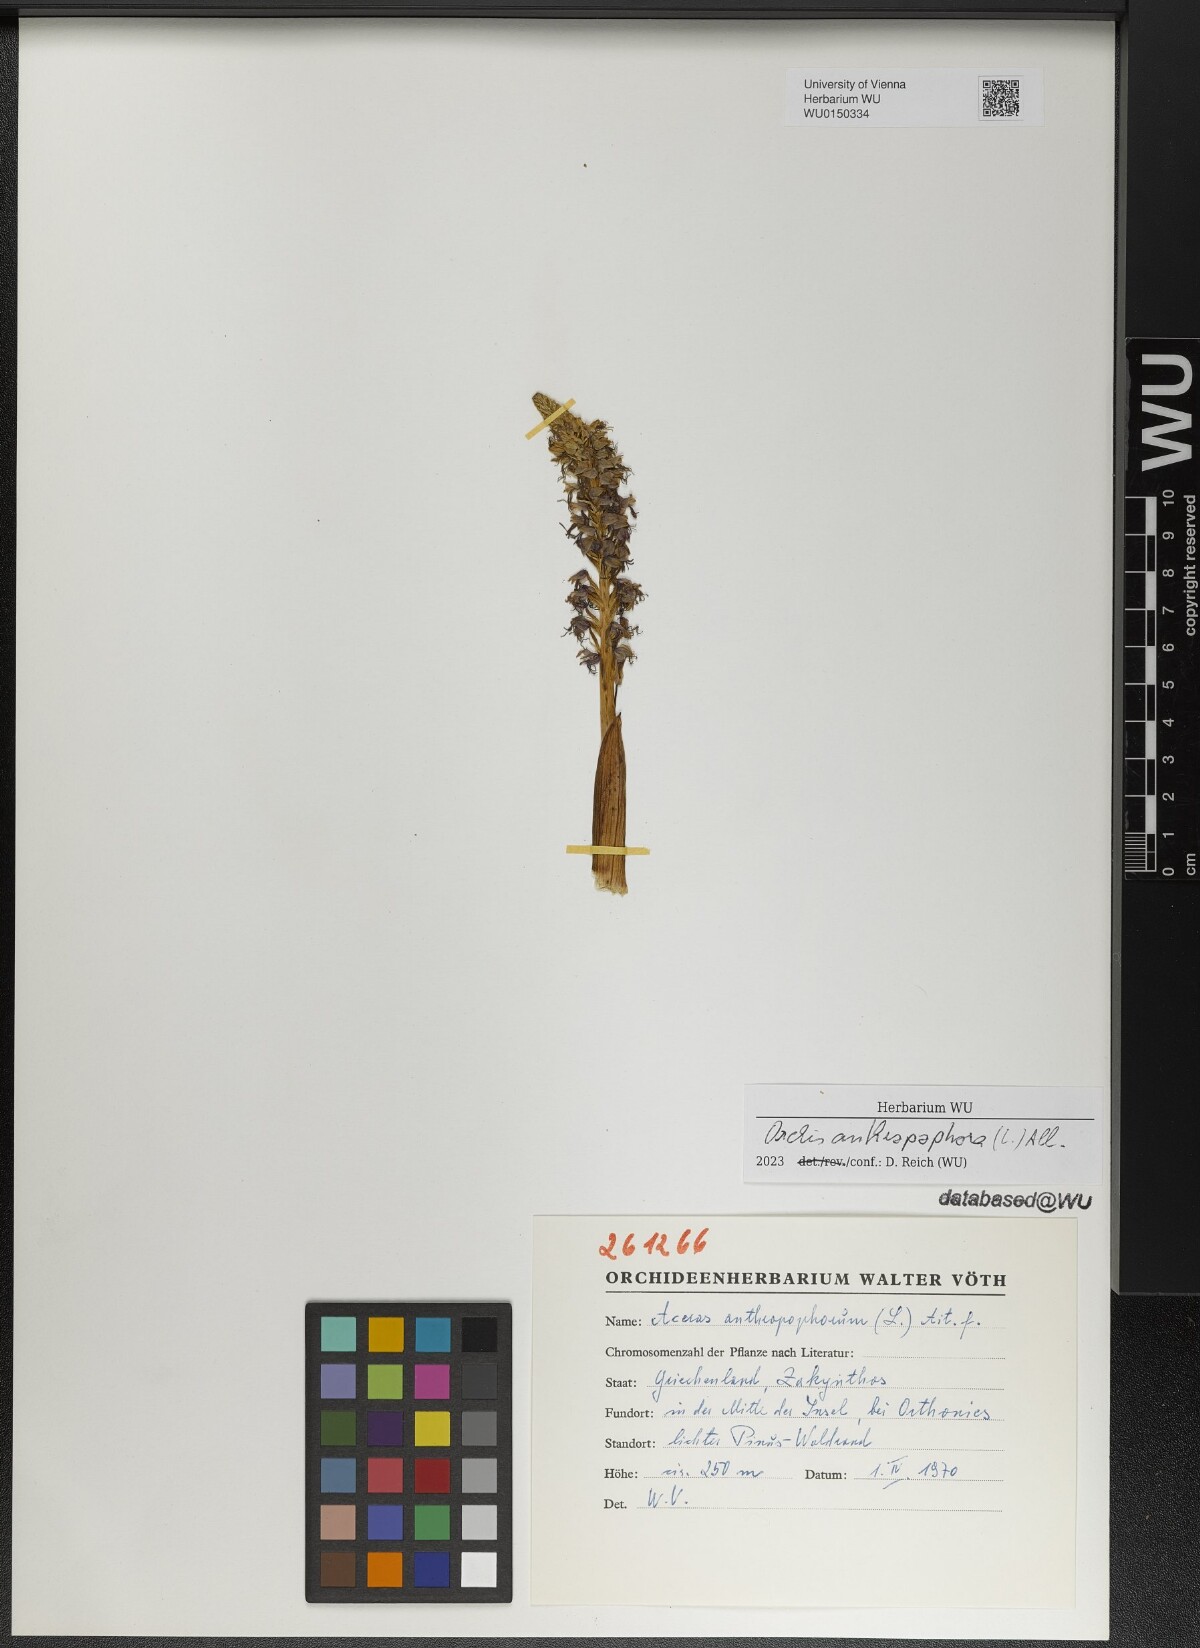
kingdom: Plantae
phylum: Tracheophyta
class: Liliopsida
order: Asparagales
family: Orchidaceae
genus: Orchis
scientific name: Orchis anthropophora
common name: Man orchid
